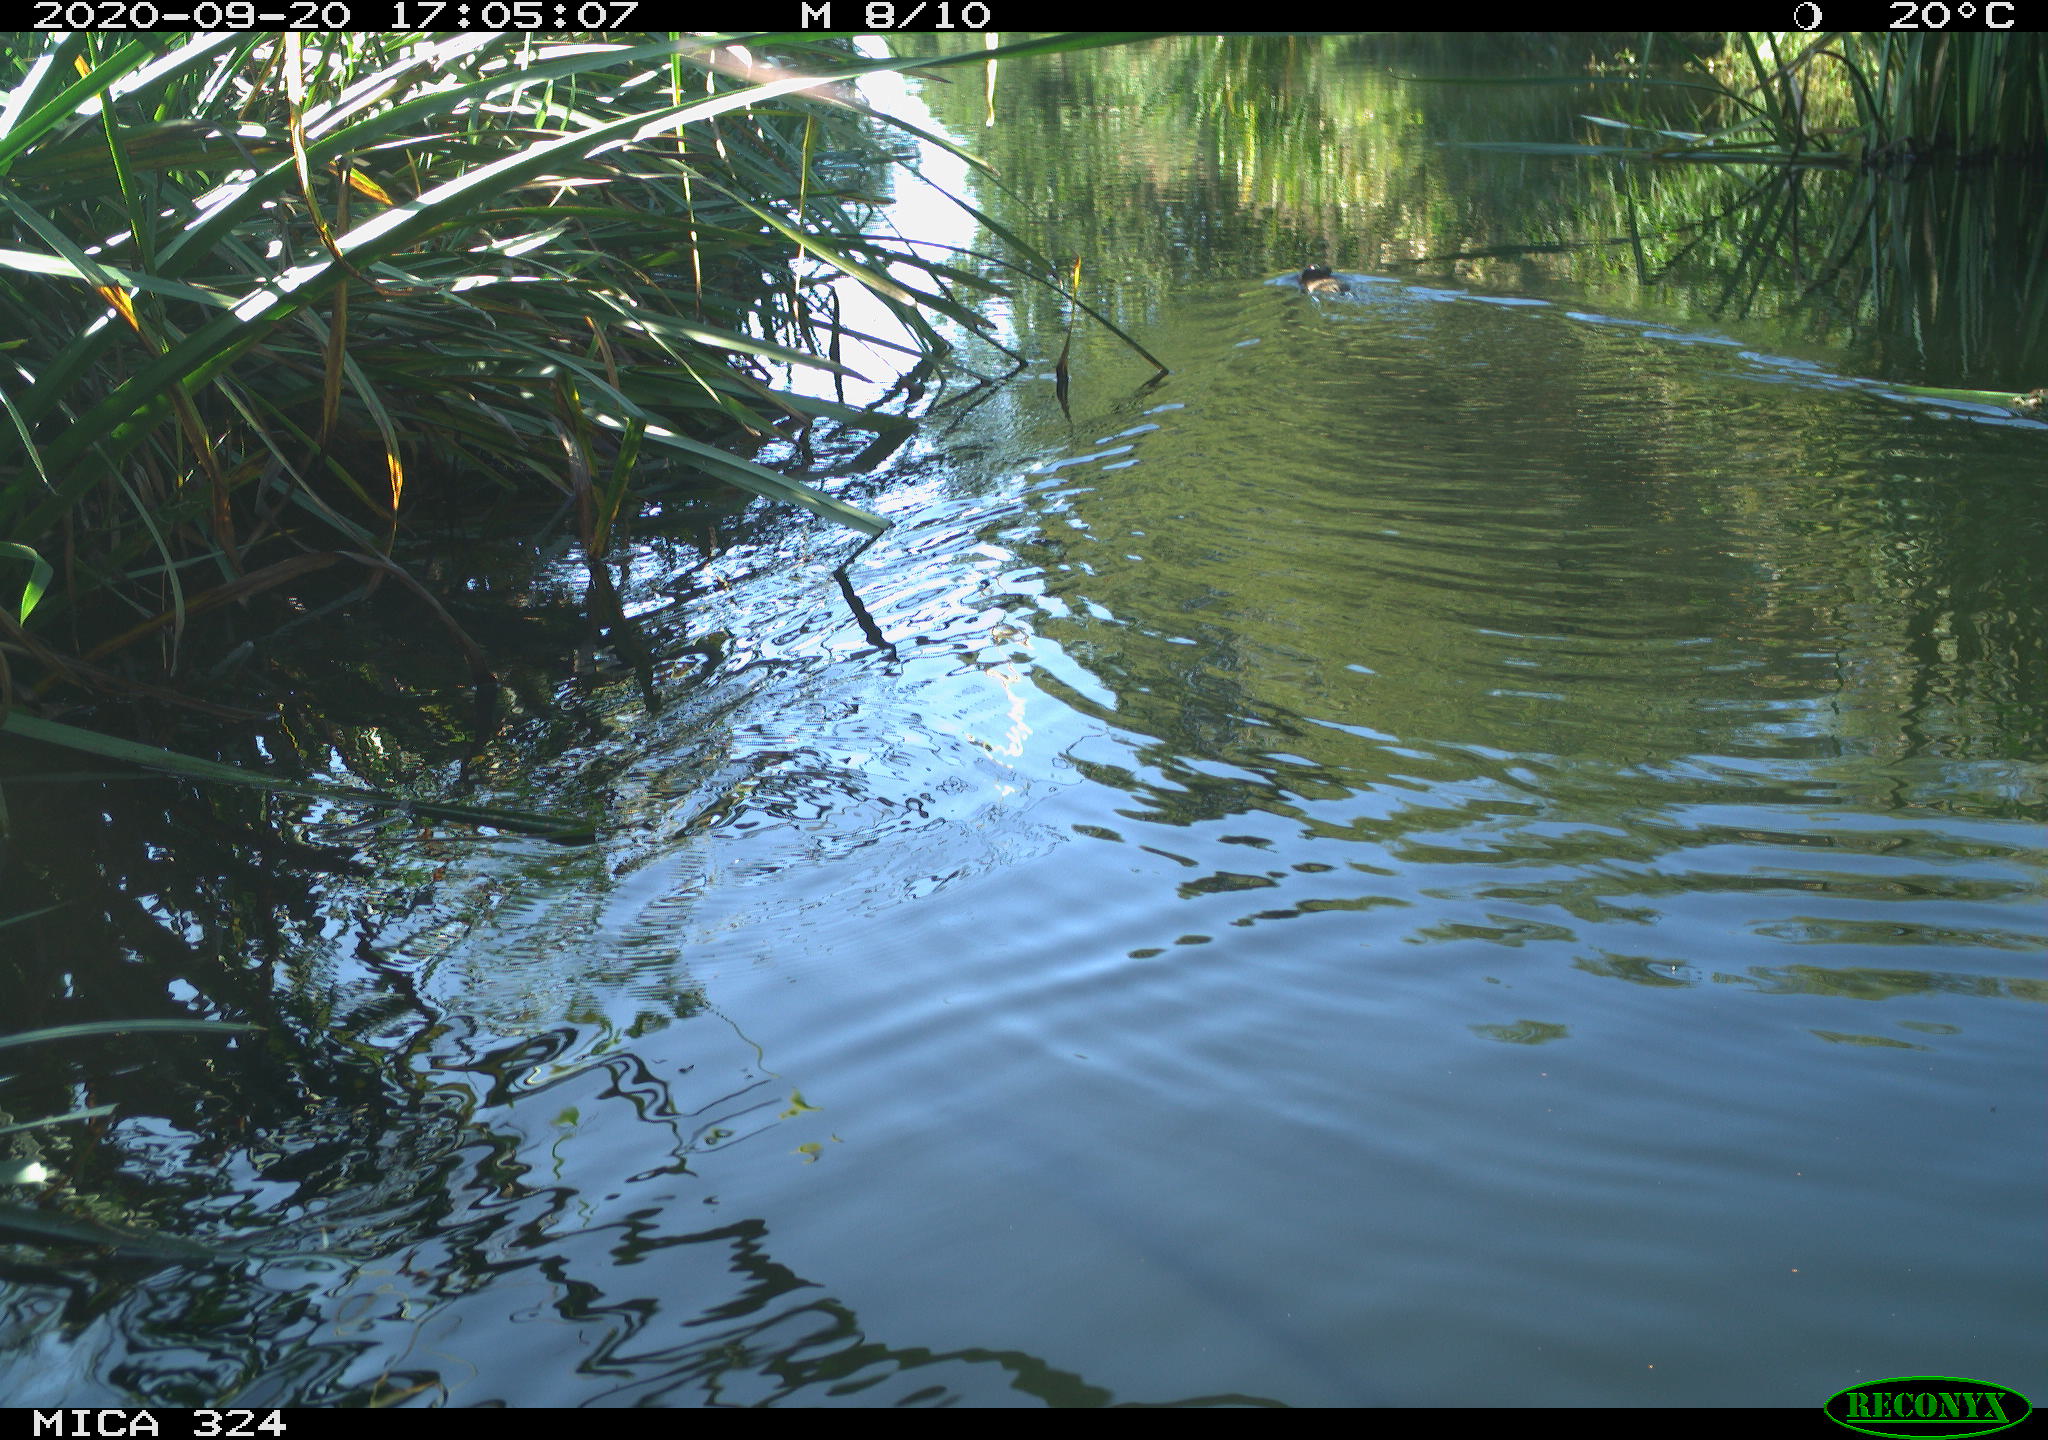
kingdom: Animalia
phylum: Chordata
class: Mammalia
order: Rodentia
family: Cricetidae
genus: Ondatra
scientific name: Ondatra zibethicus
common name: Muskrat
